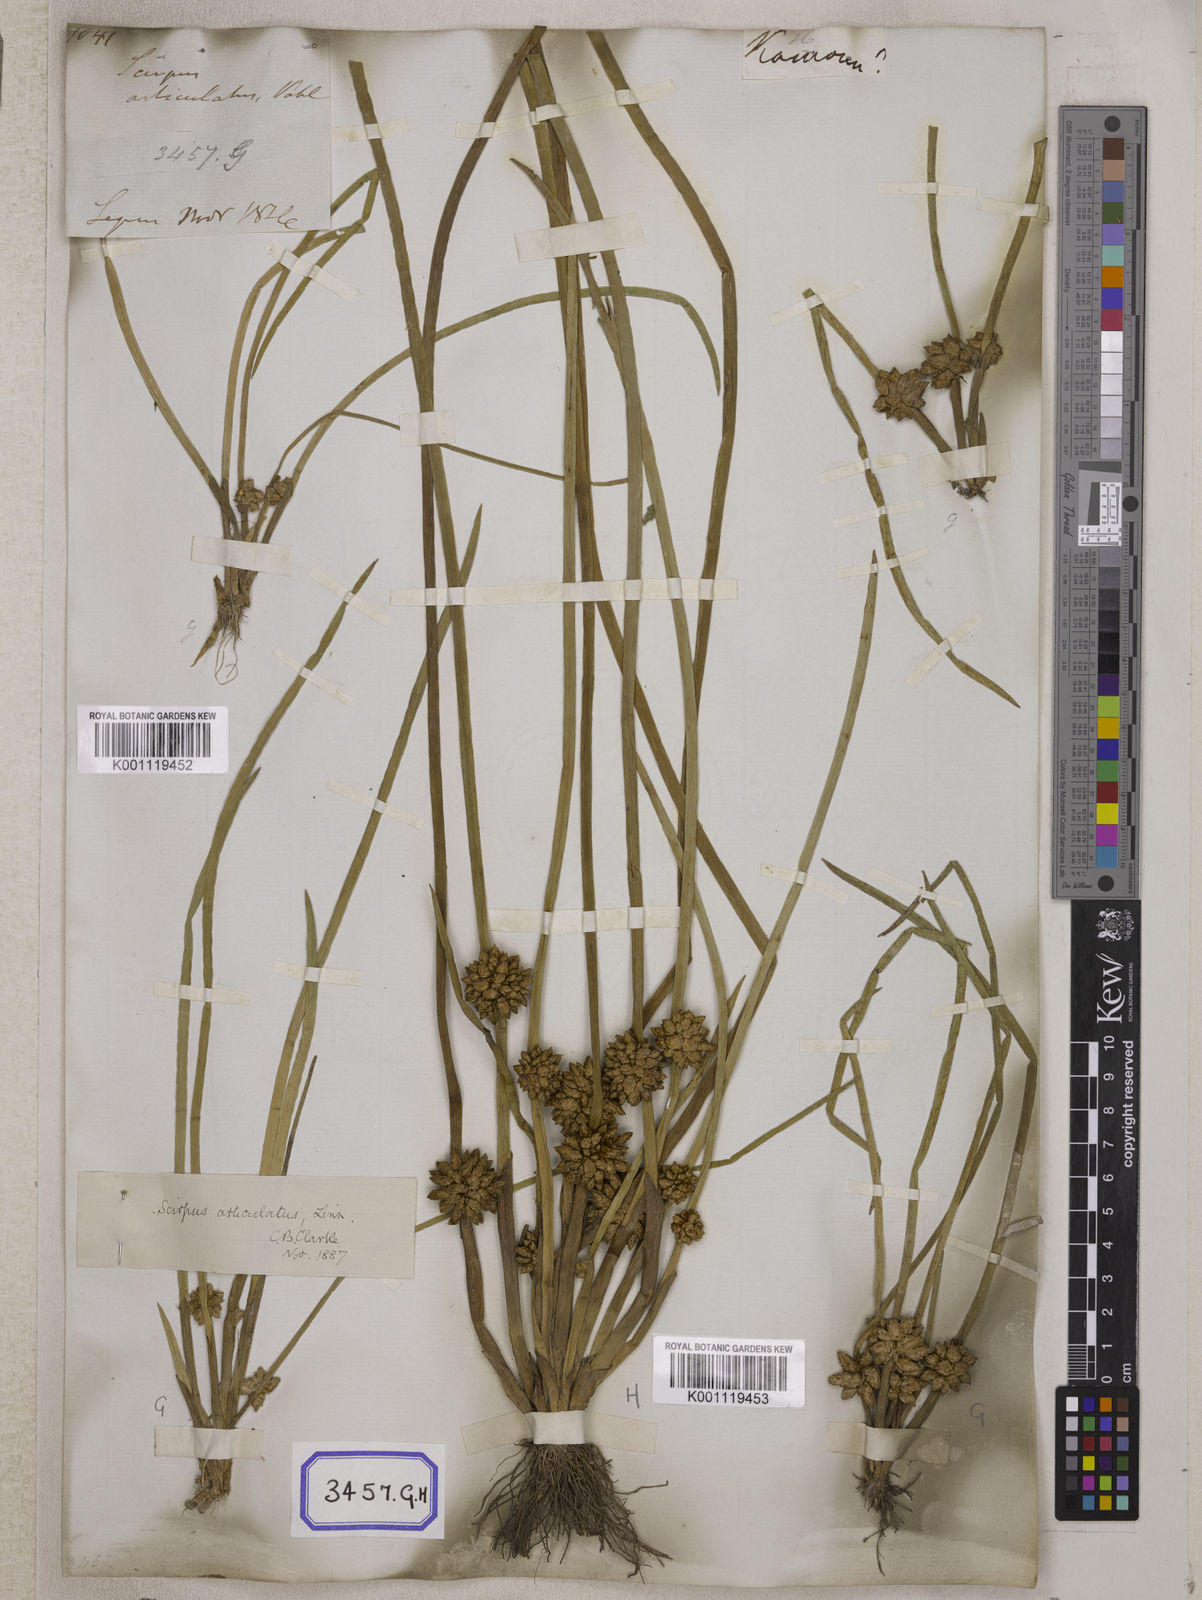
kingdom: Plantae
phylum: Tracheophyta
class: Liliopsida
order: Poales
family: Cyperaceae
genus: Scirpus
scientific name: Scirpus
